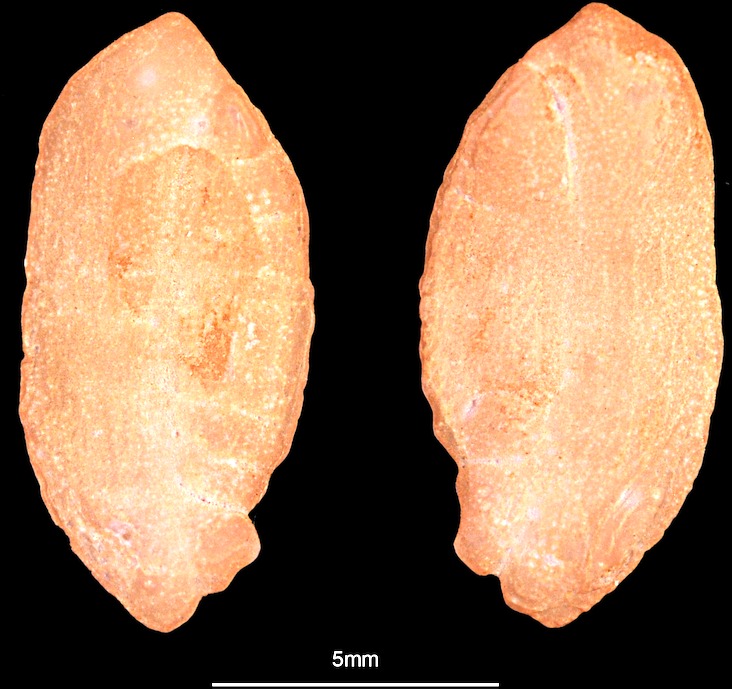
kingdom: Animalia
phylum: Chordata
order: Gadiformes
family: Lotidae
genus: Brosme
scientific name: Brosme brosme
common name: Cusk
